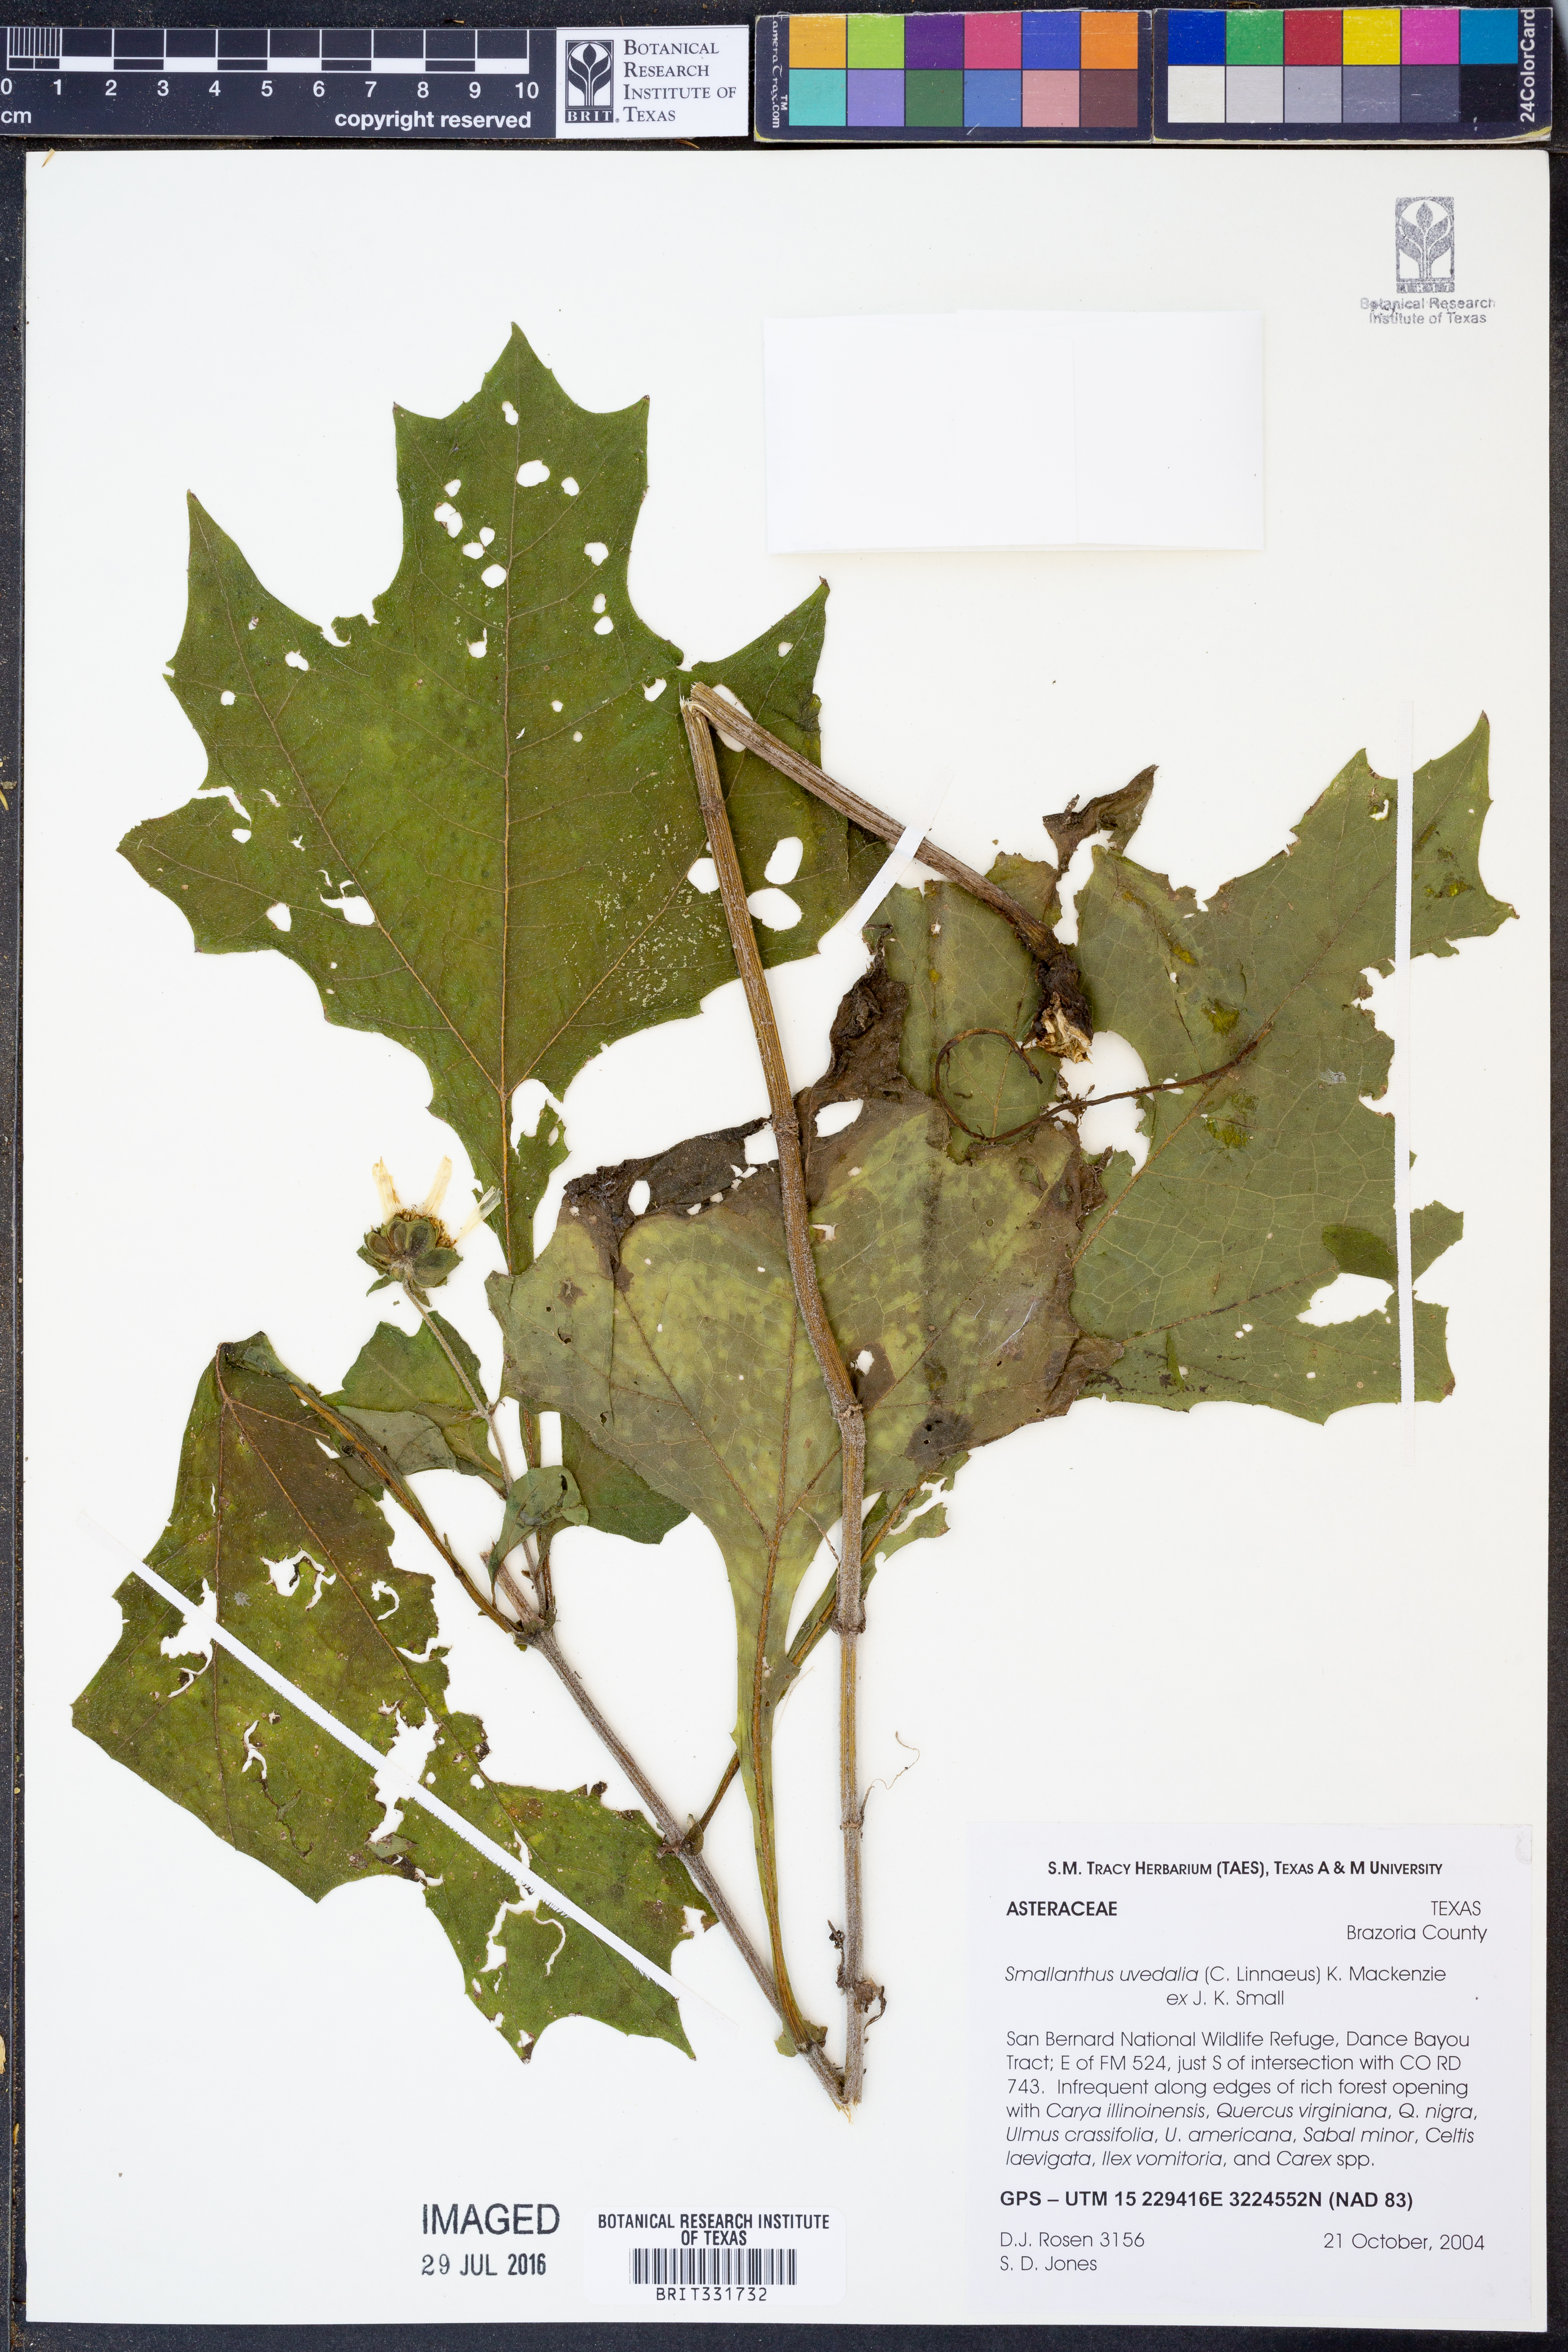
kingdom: Plantae
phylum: Tracheophyta
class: Magnoliopsida
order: Asterales
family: Asteraceae
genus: Smallanthus
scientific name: Smallanthus uvedalia
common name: Bear's-foot
